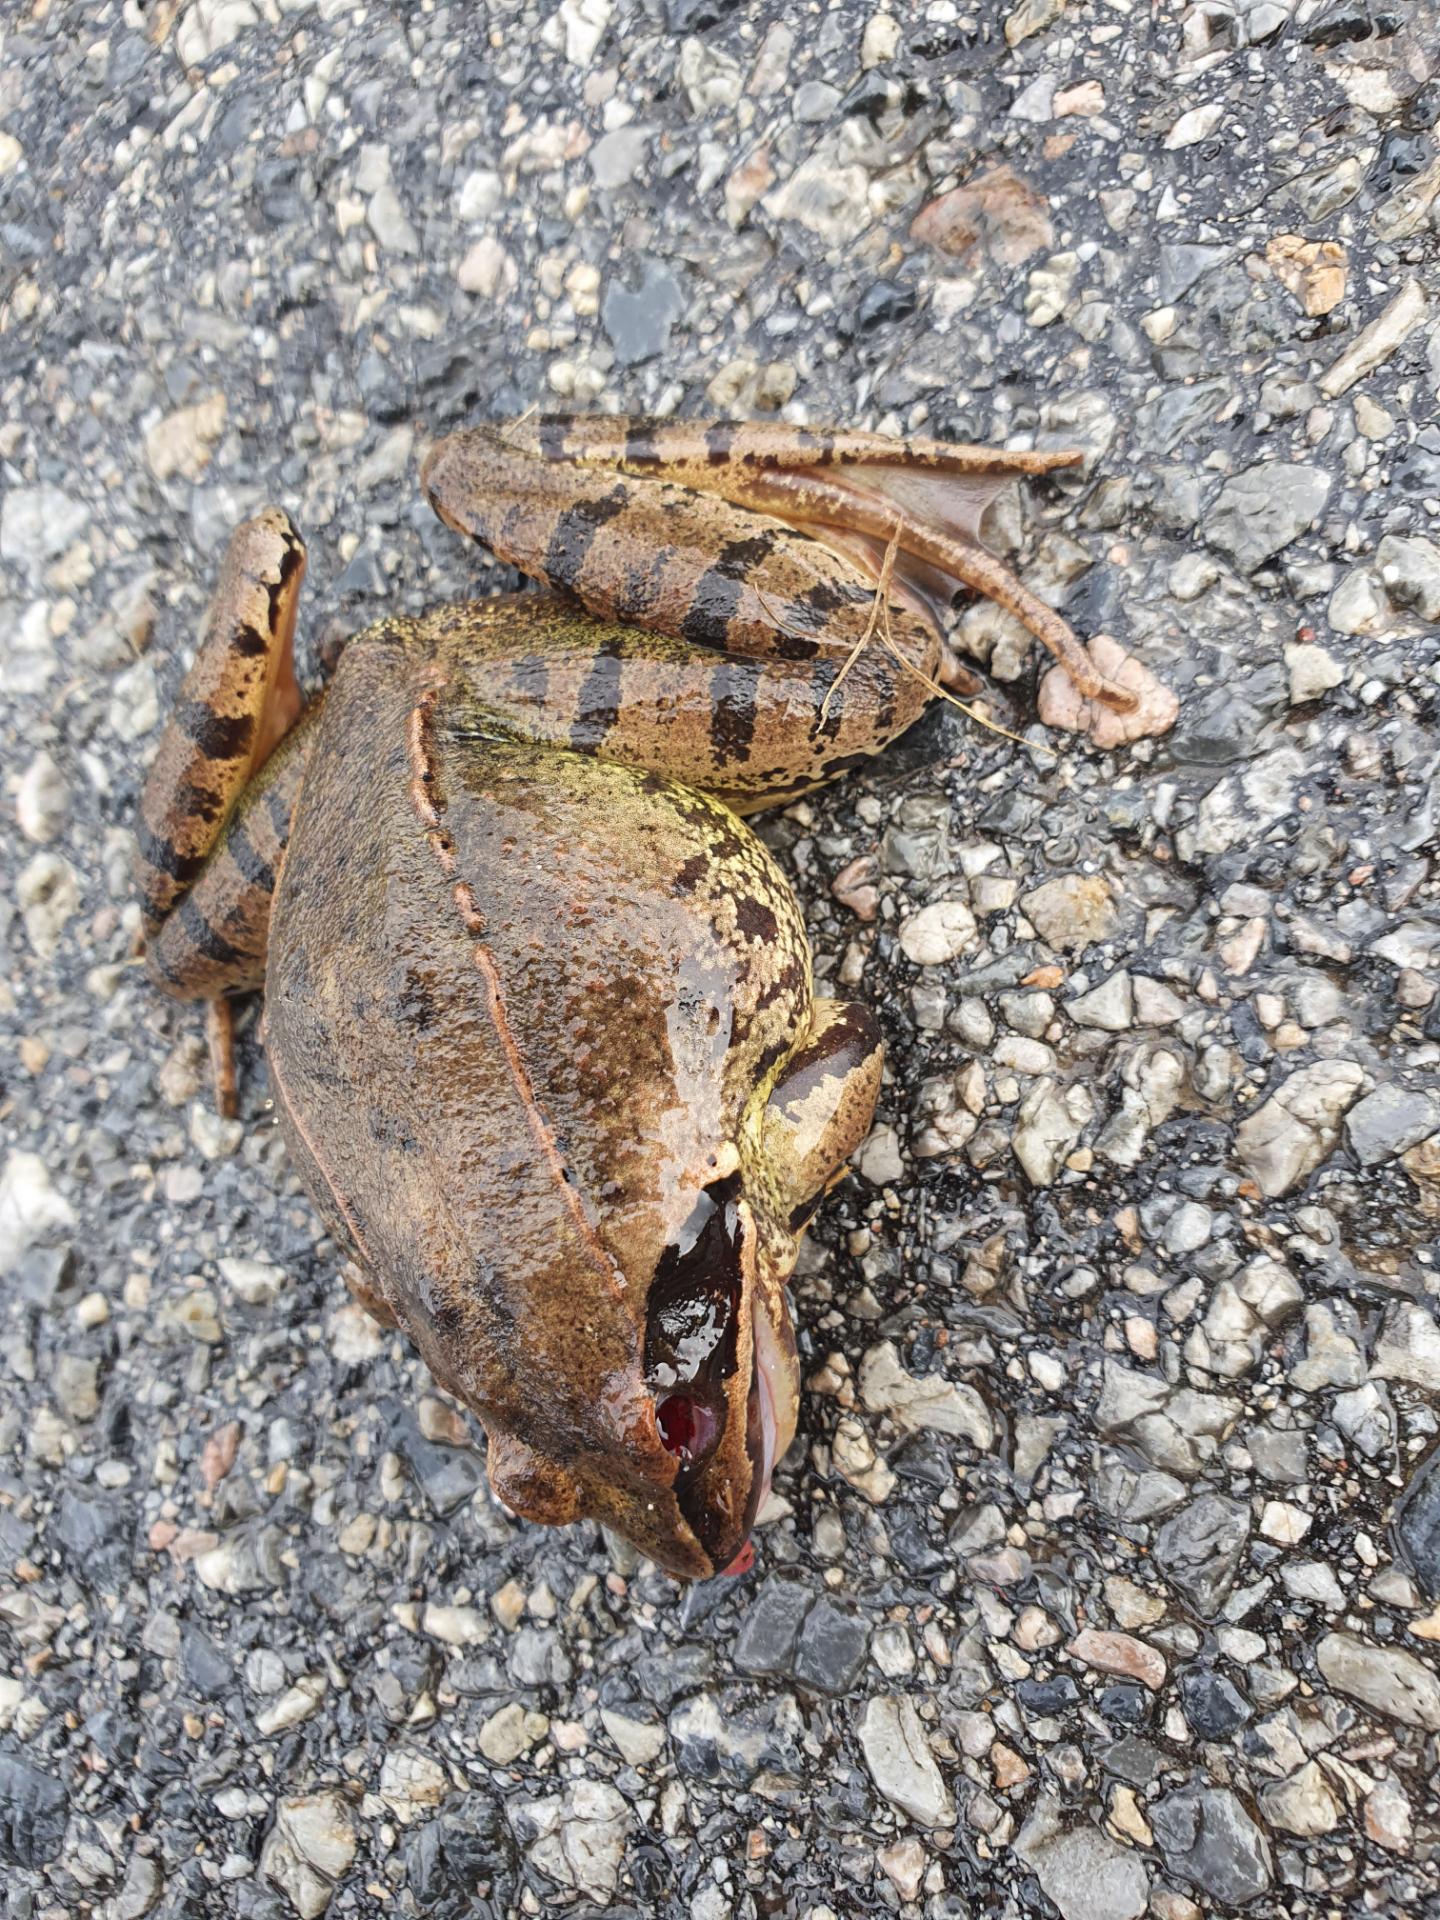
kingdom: Animalia
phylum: Chordata
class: Amphibia
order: Anura
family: Ranidae
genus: Rana
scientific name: Rana dalmatina
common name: Agile frog
